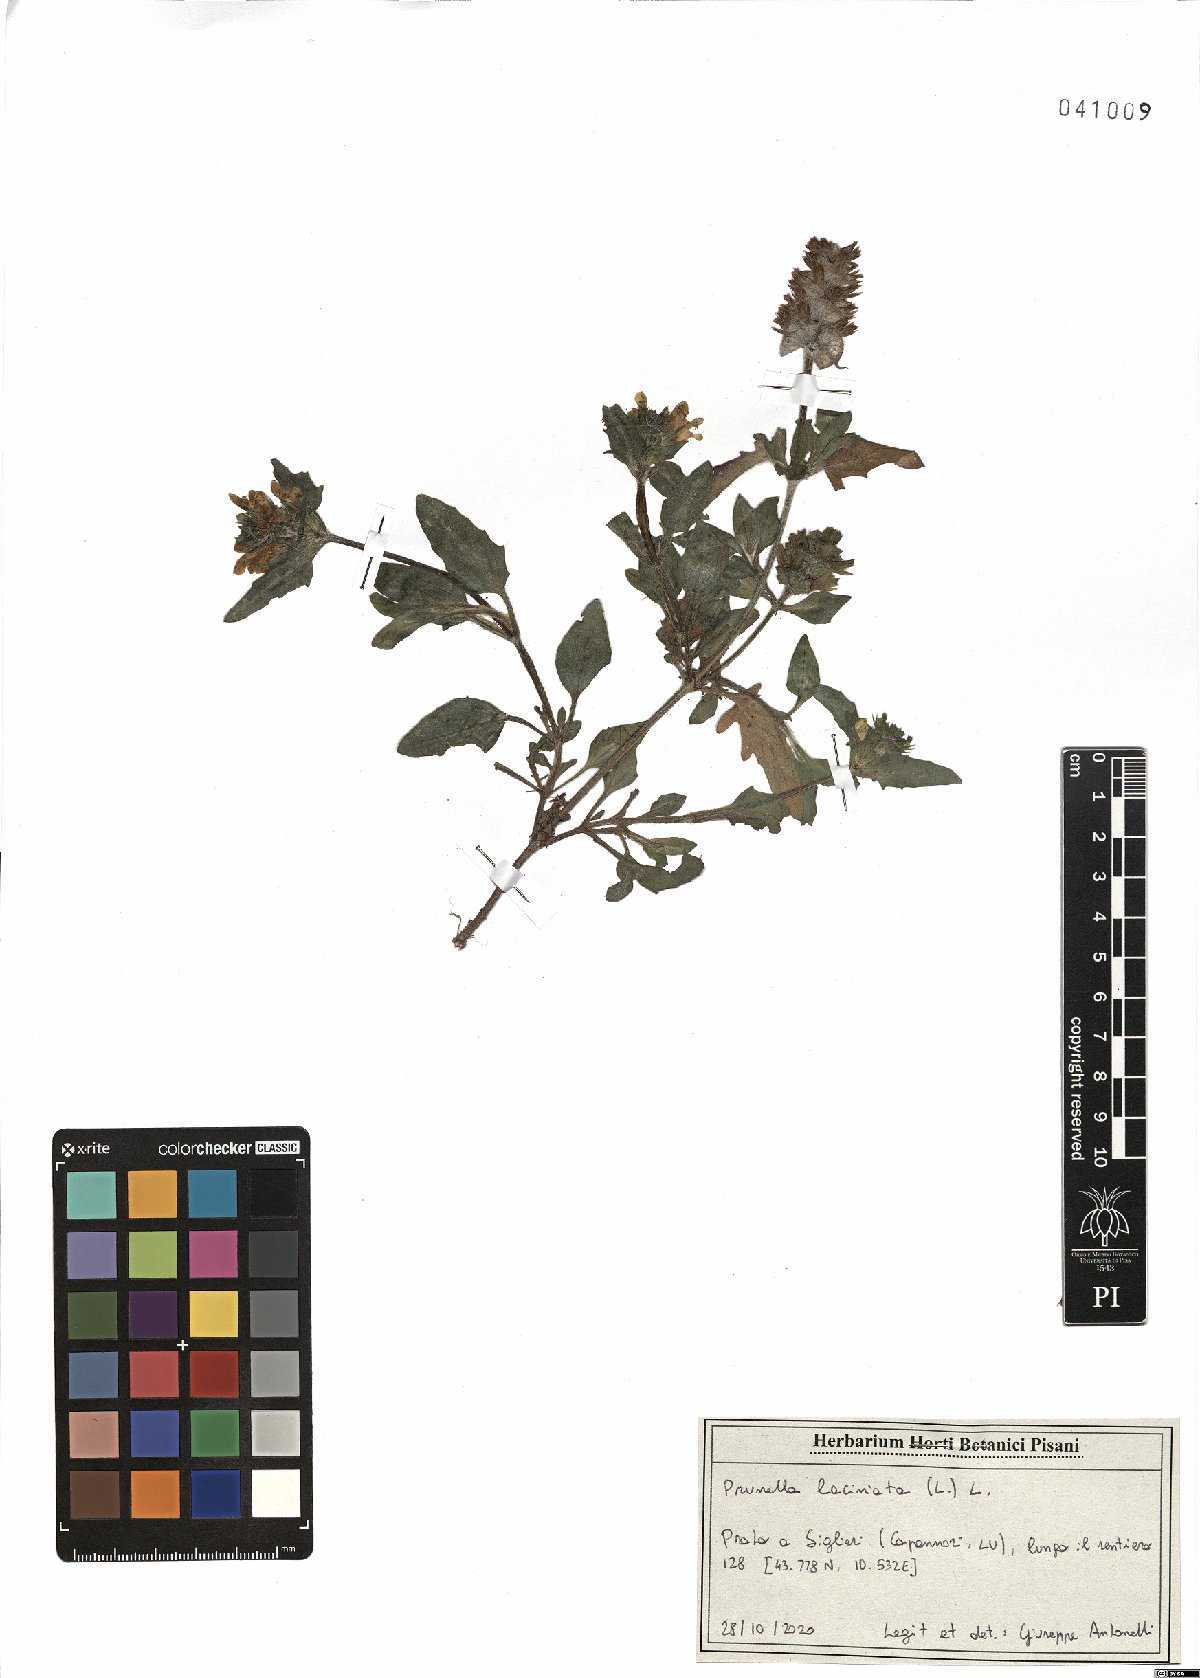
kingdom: Plantae
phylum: Tracheophyta
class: Magnoliopsida
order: Lamiales
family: Lamiaceae
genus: Prunella
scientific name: Prunella laciniata
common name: Cut-leaved selfheal
